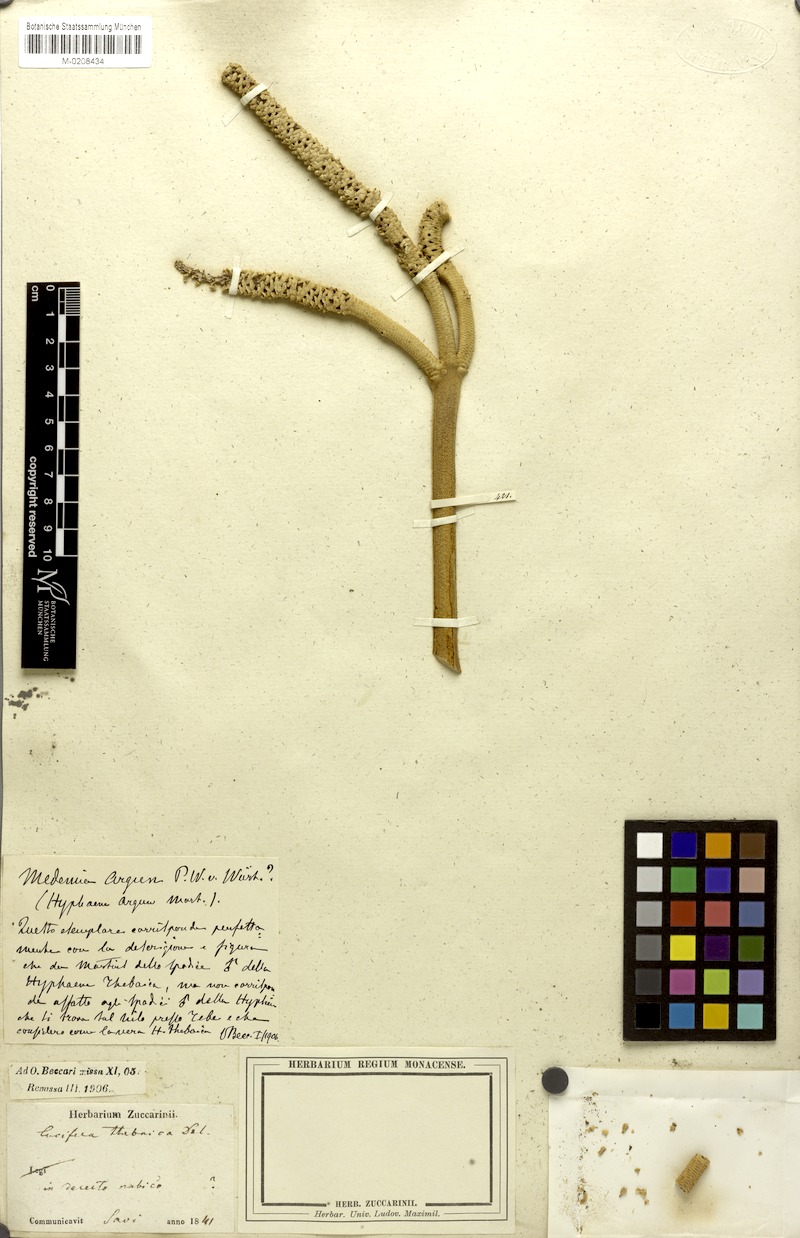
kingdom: Plantae
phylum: Tracheophyta
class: Liliopsida
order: Arecales
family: Arecaceae
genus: Hyphaene
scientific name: Hyphaene thebaica
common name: Doum palm
